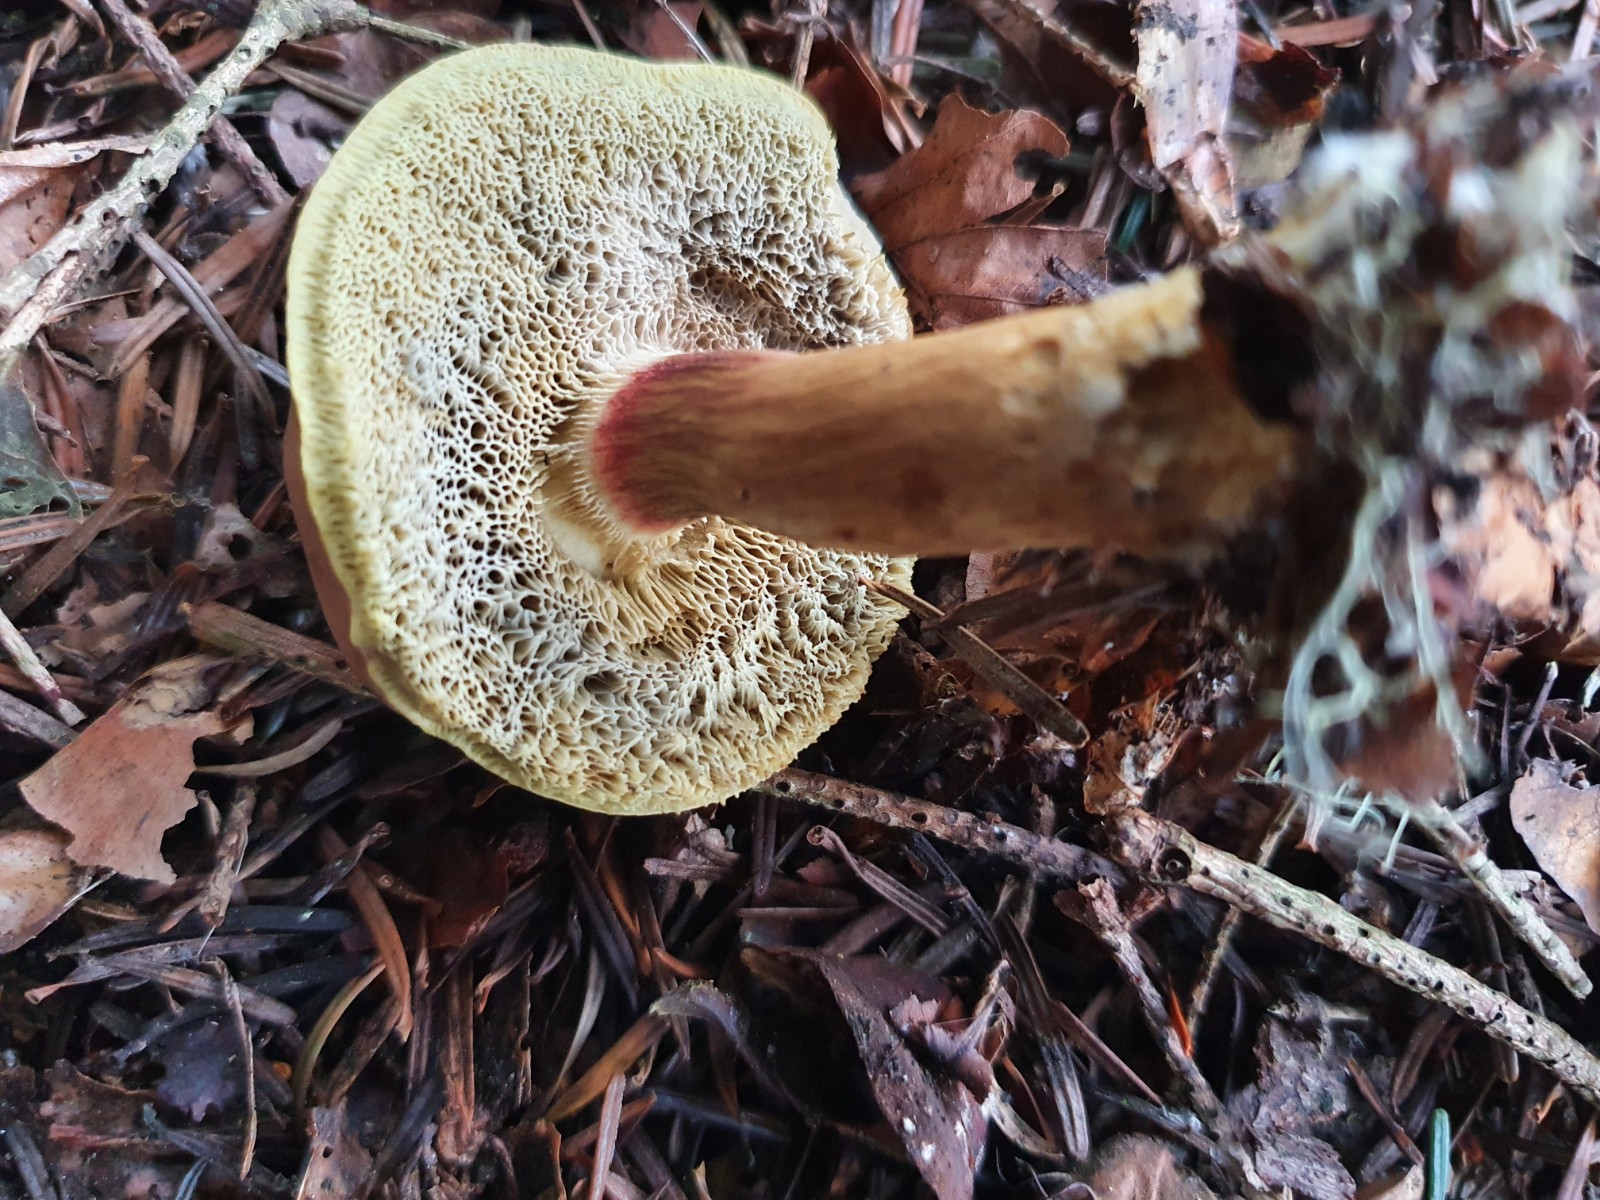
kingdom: Fungi
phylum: Basidiomycota
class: Agaricomycetes
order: Boletales
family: Boletaceae
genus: Xerocomellus
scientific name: Xerocomellus
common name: dværgrørhat
